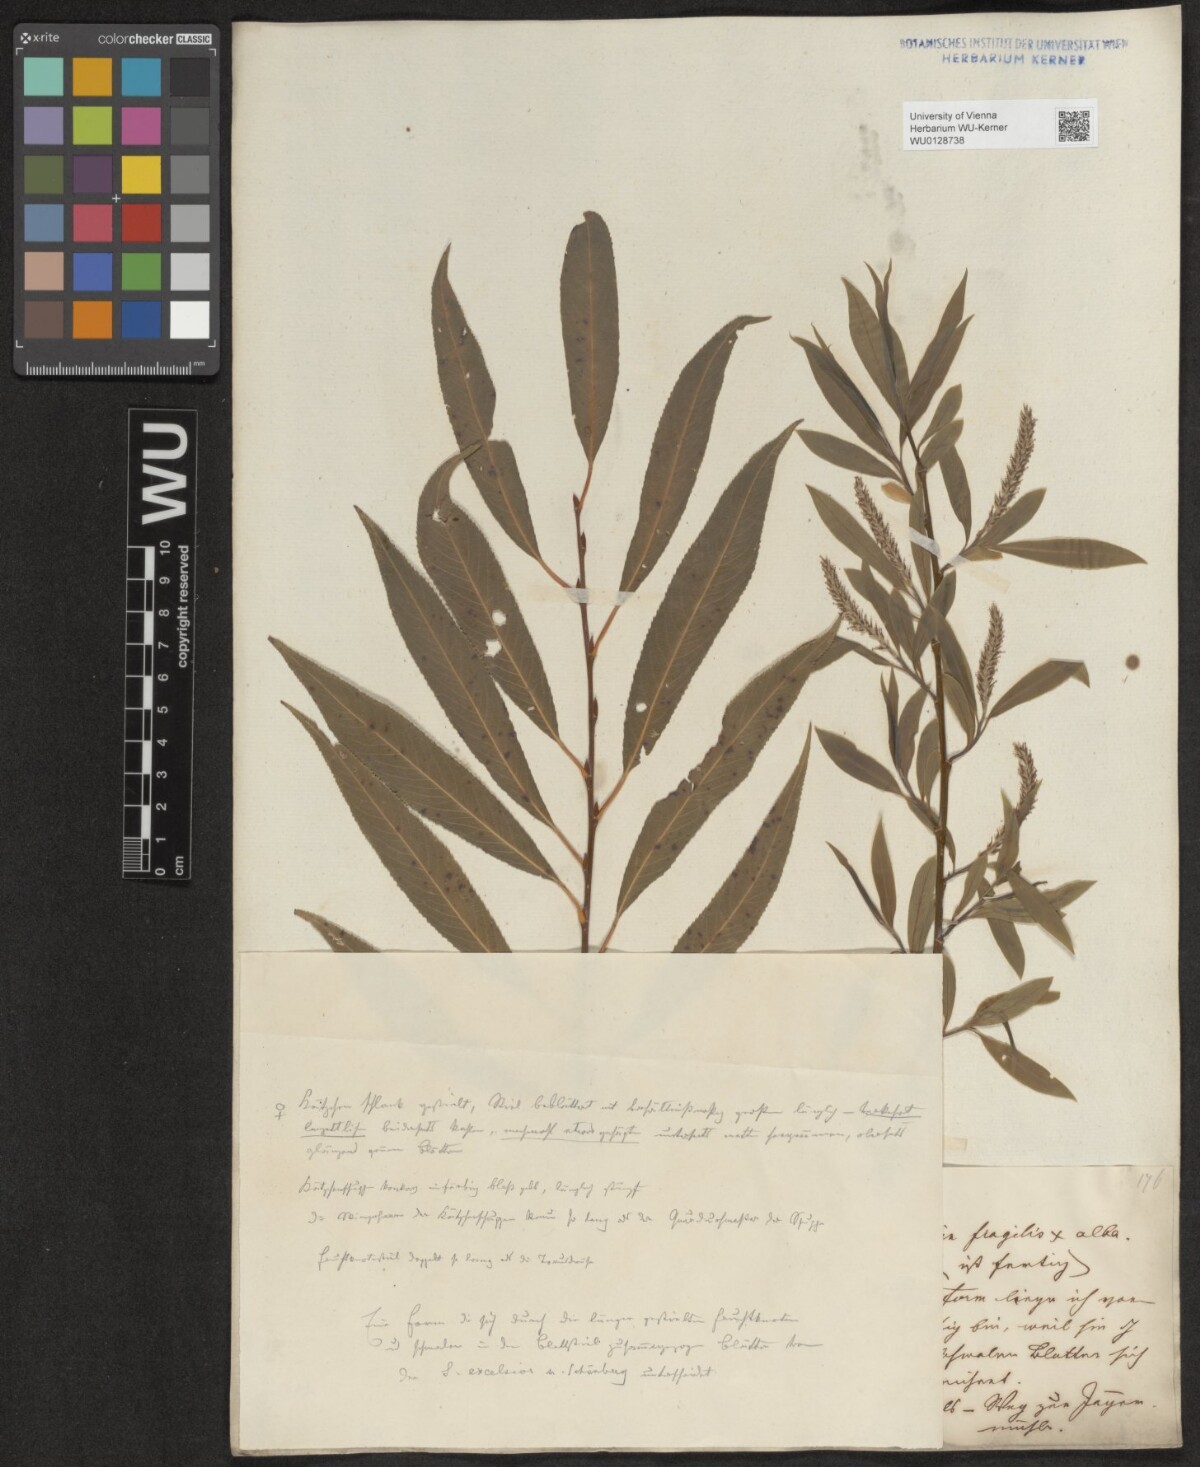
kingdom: Plantae
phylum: Tracheophyta
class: Magnoliopsida
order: Malpighiales
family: Salicaceae
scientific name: Salicaceae
